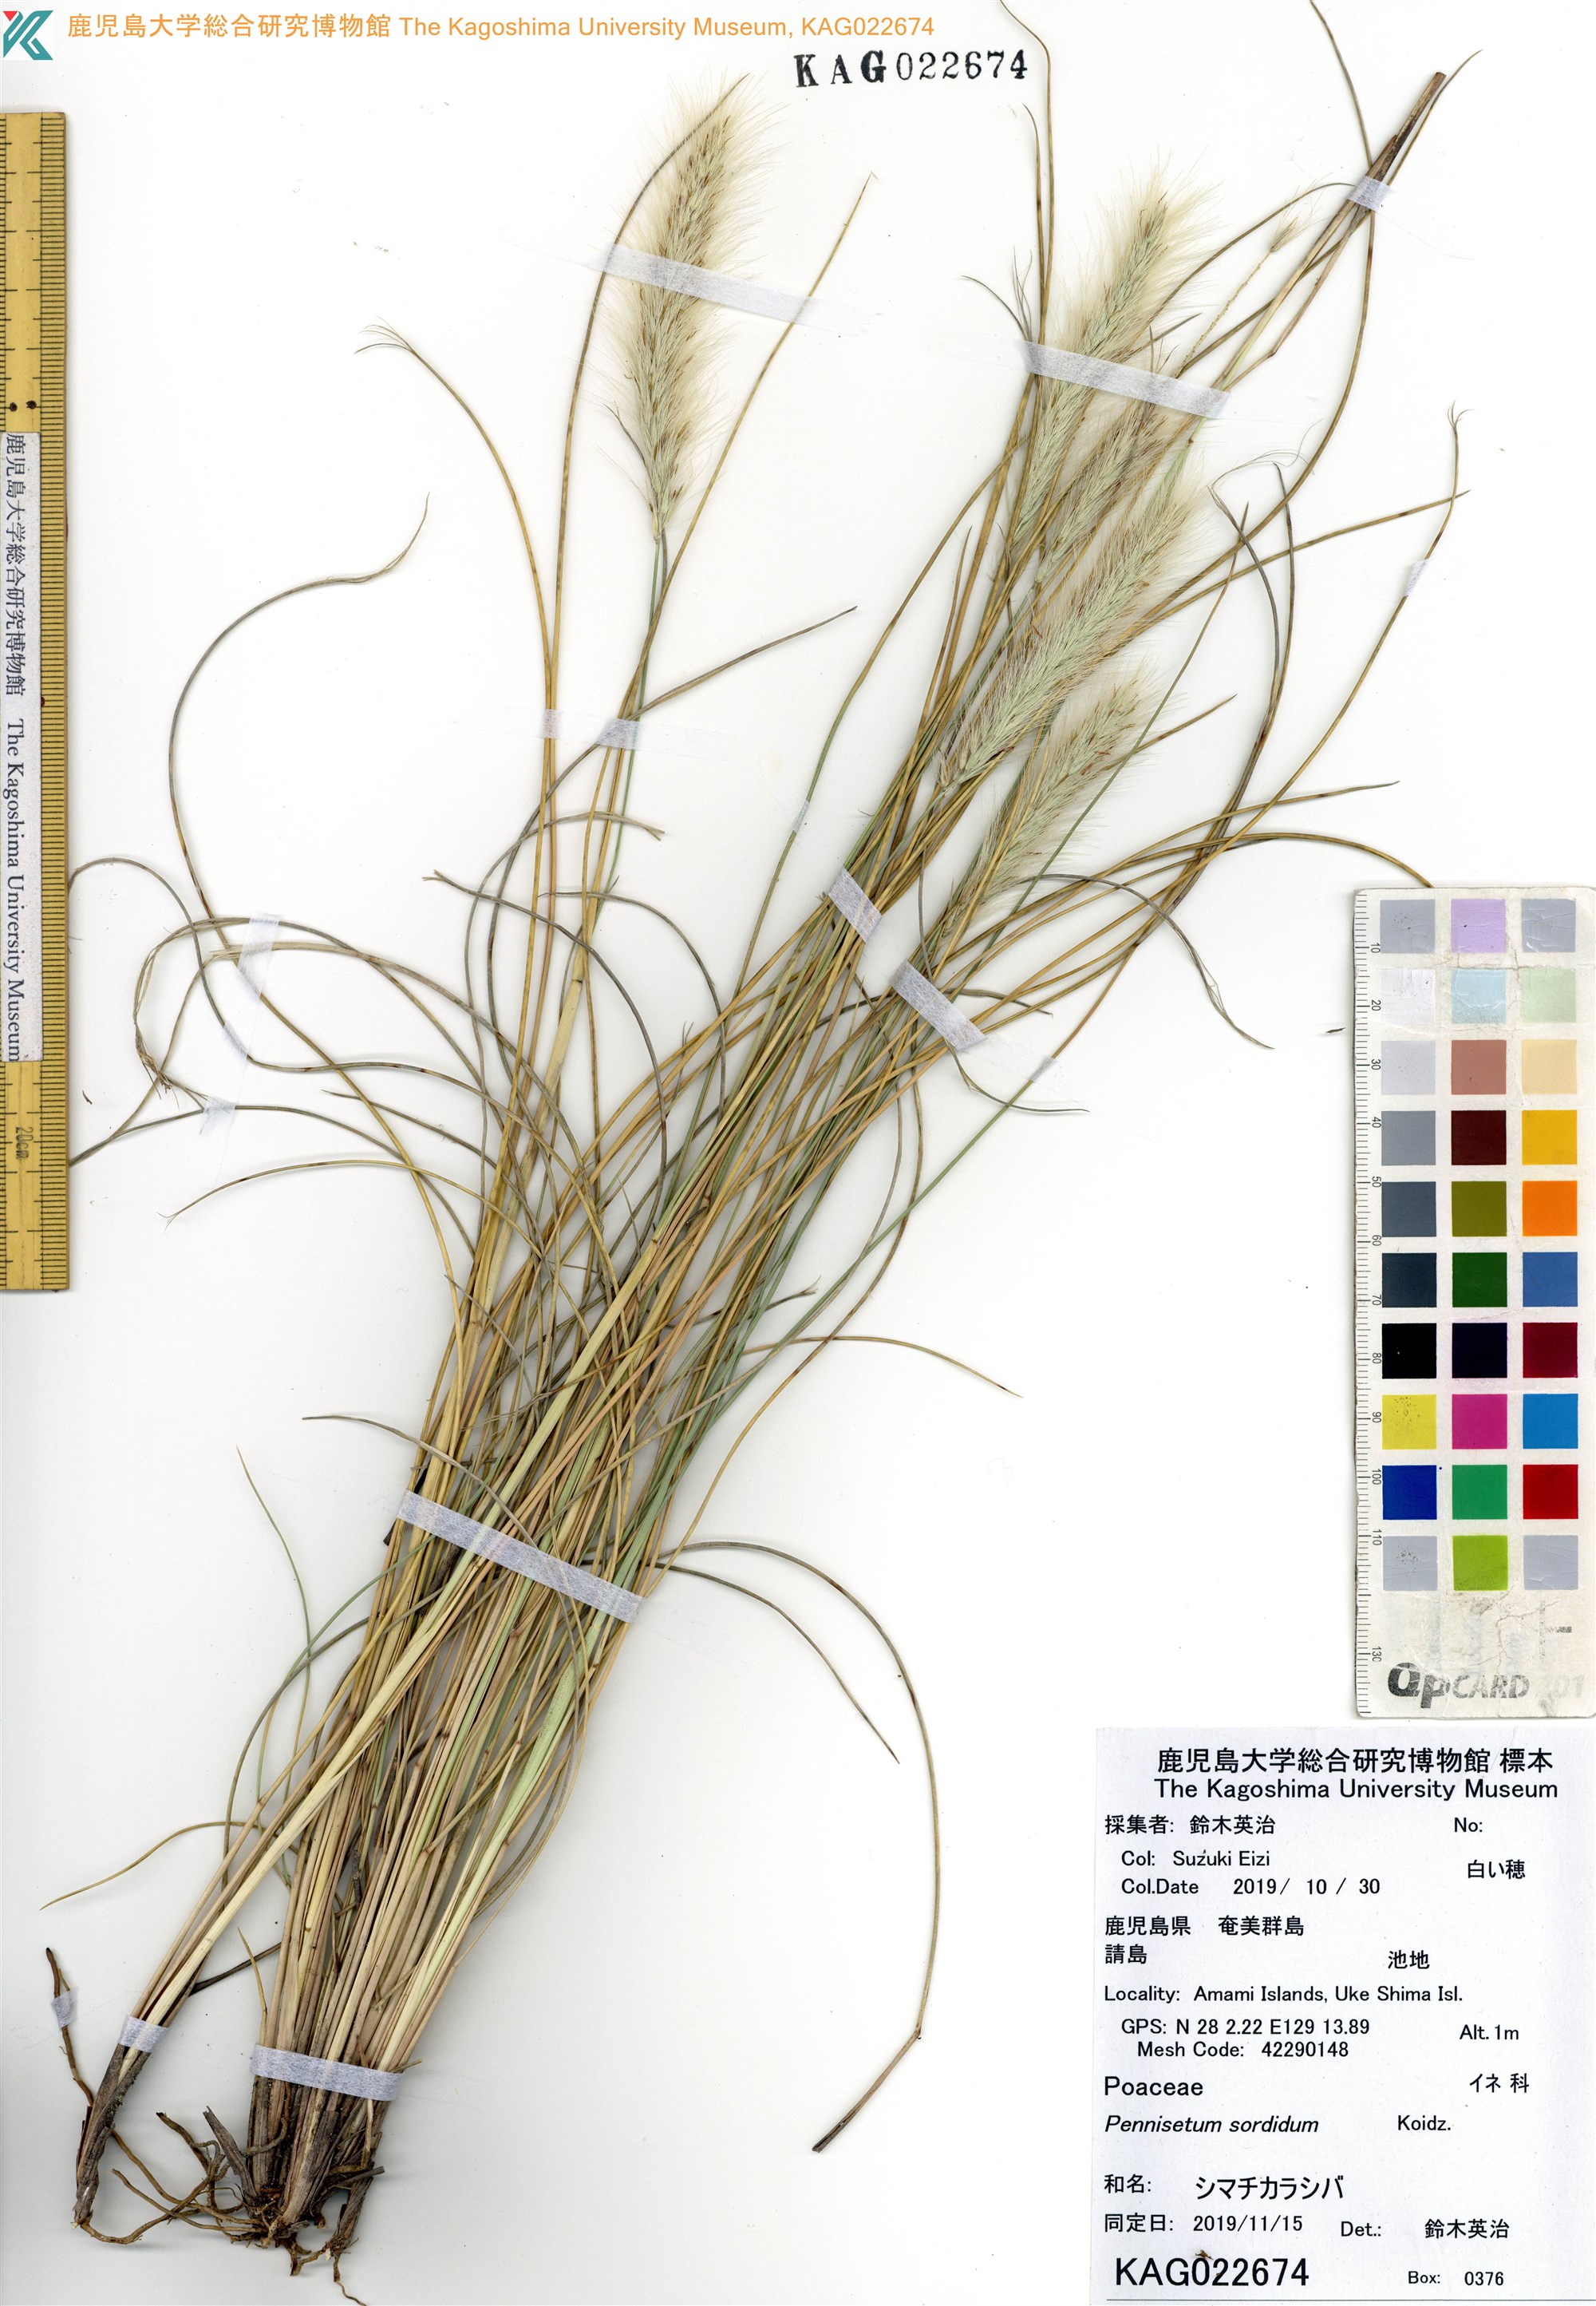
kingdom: Plantae
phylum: Tracheophyta
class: Liliopsida
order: Poales
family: Poaceae
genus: Cenchrus
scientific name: Cenchrus alopecuroides
